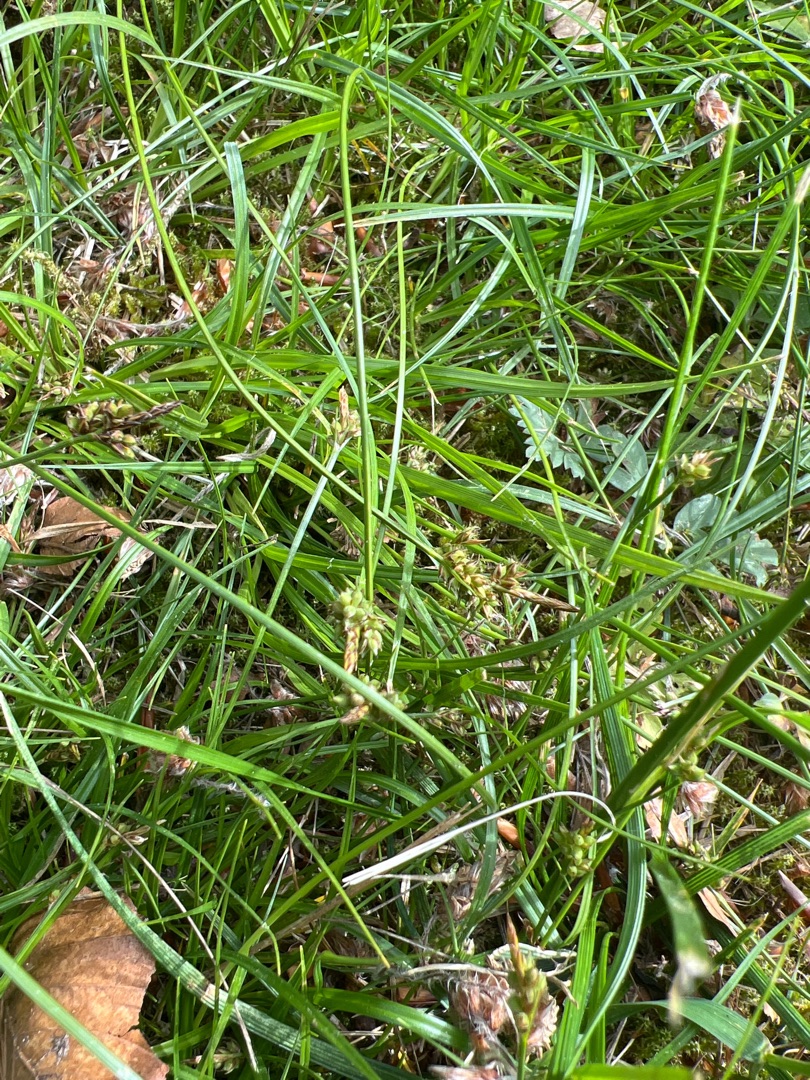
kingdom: Plantae
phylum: Tracheophyta
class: Liliopsida
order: Poales
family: Cyperaceae
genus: Carex
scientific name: Carex pilulifera
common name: Pille-star
